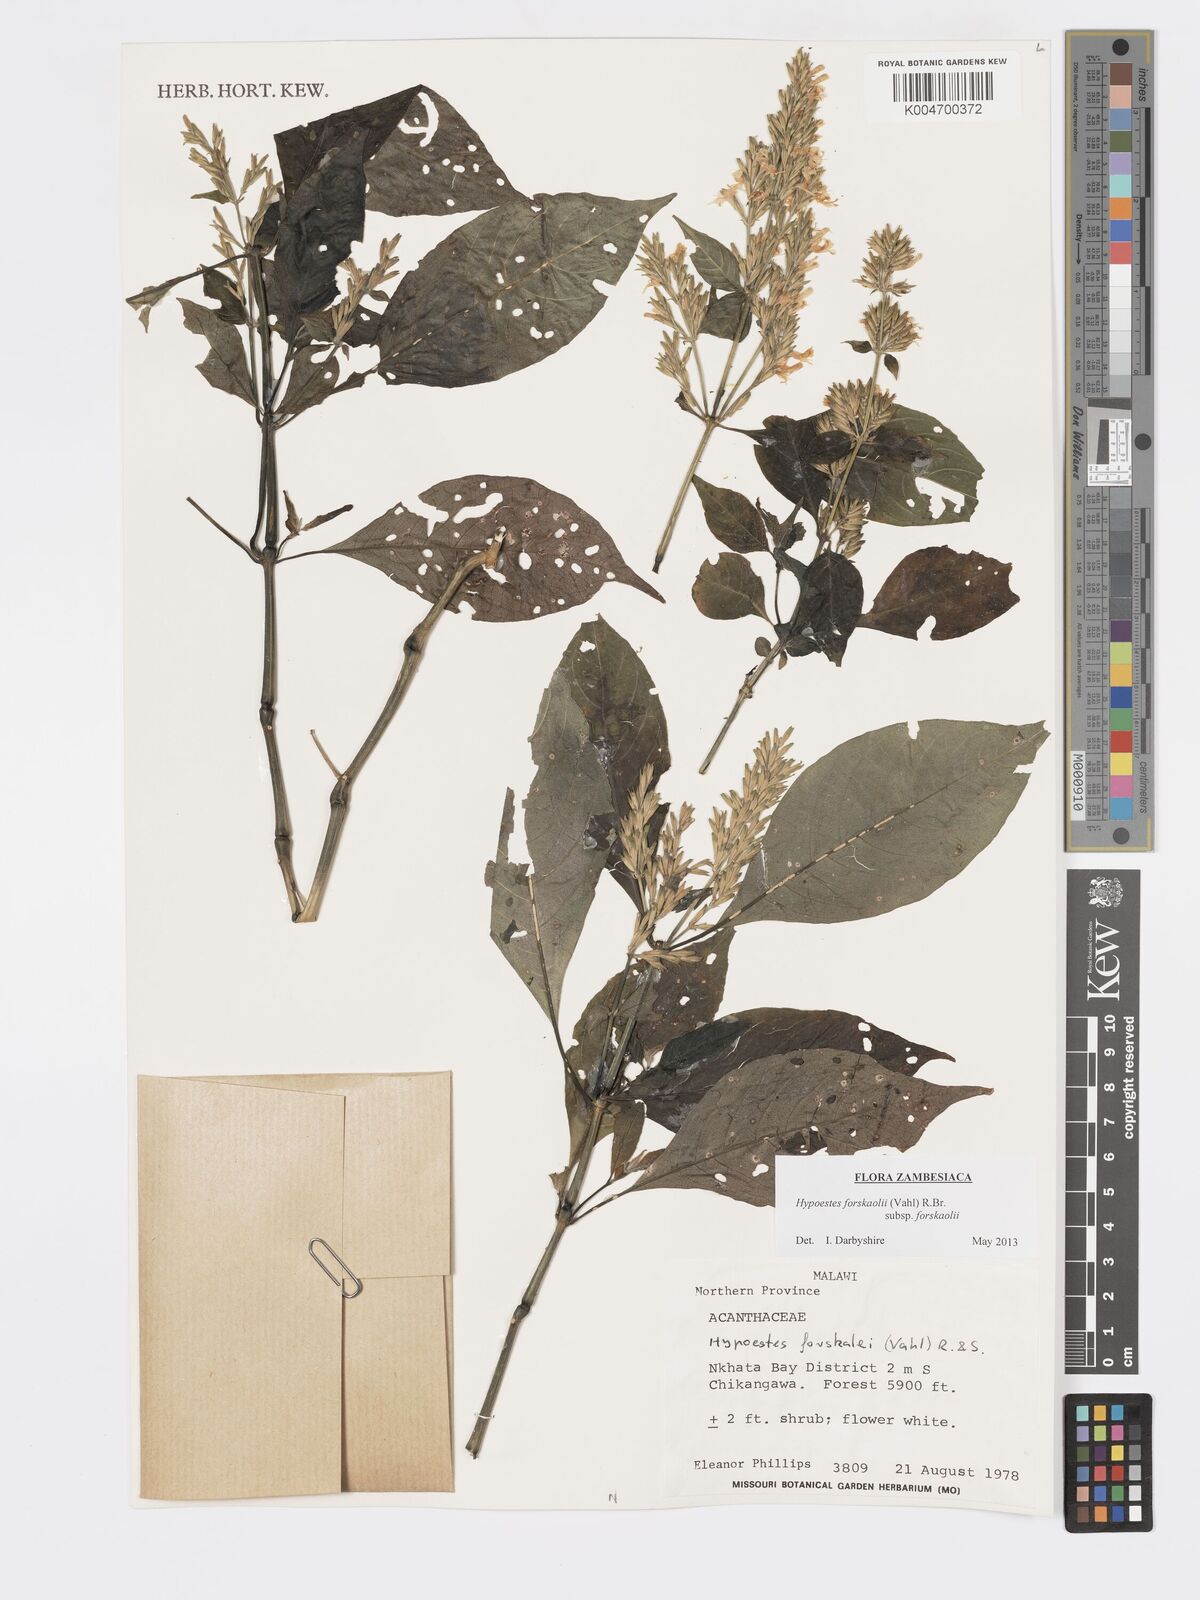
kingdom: Plantae
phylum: Tracheophyta
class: Magnoliopsida
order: Lamiales
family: Acanthaceae
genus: Hypoestes
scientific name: Hypoestes forskaolii
